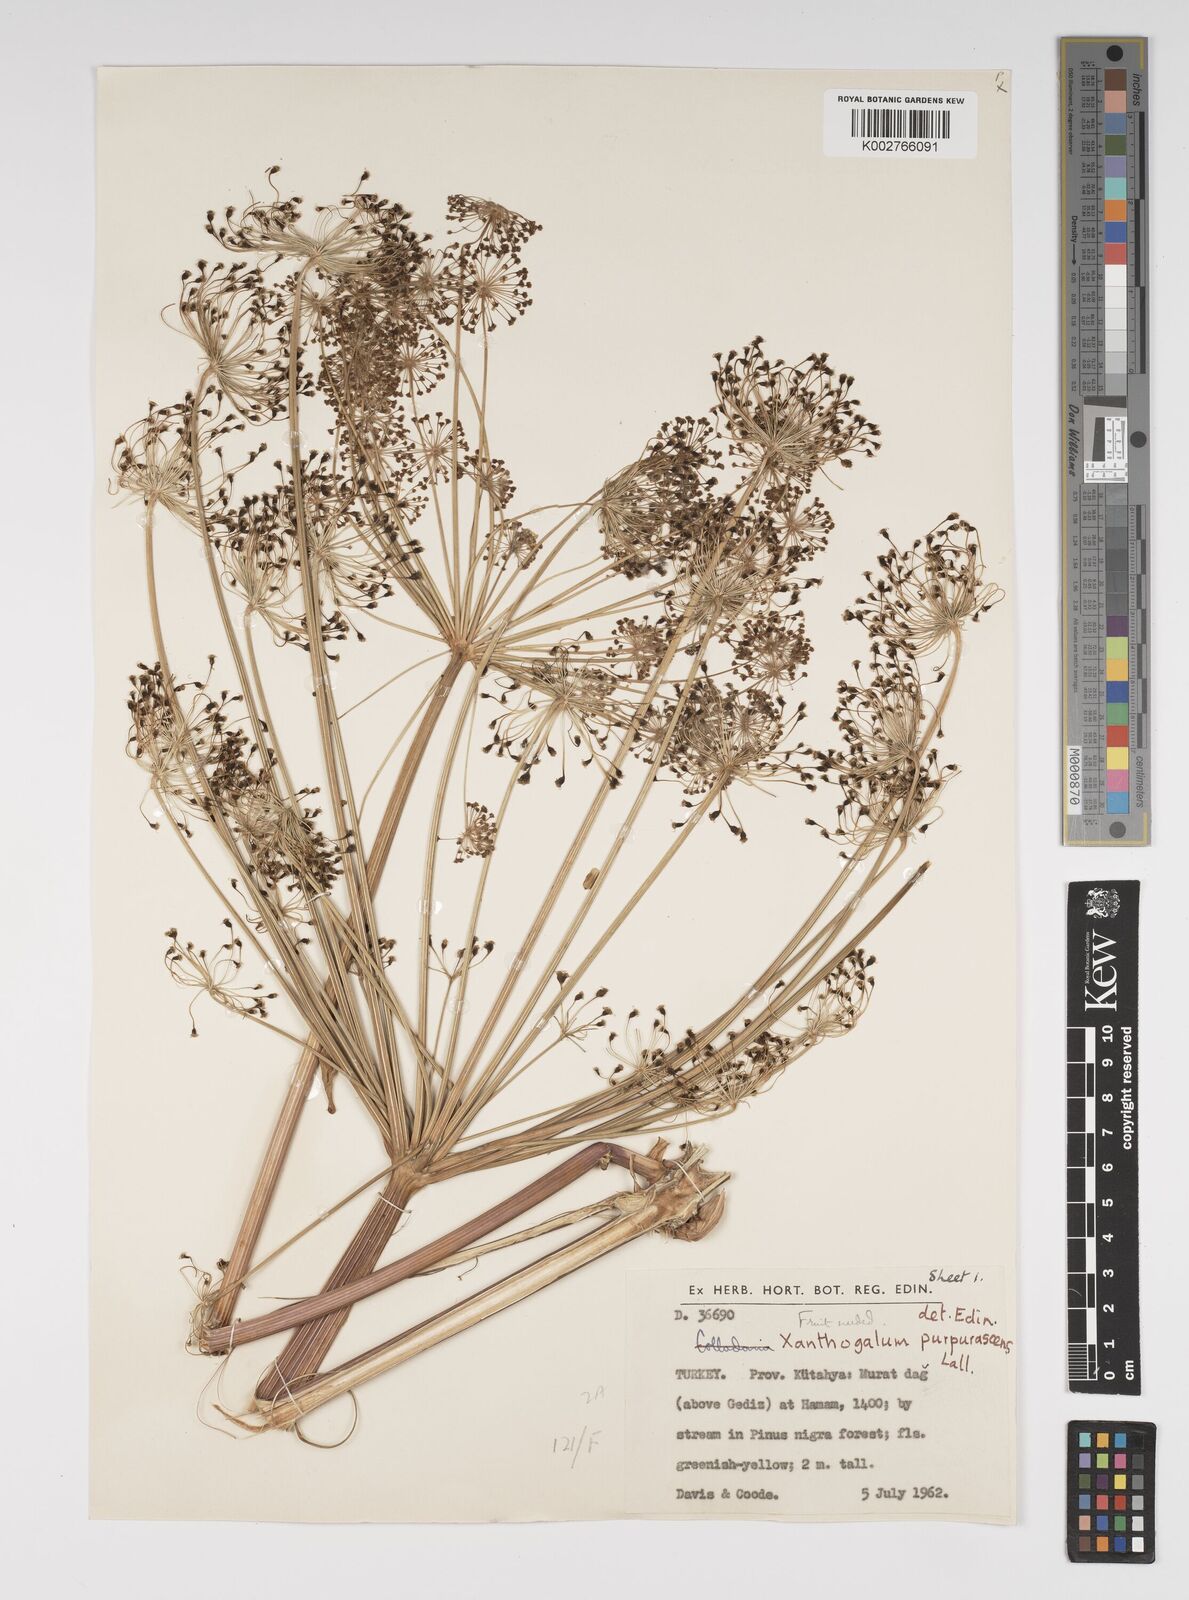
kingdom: Plantae
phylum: Tracheophyta
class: Magnoliopsida
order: Apiales
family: Apiaceae
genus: Xanthogalum
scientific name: Xanthogalum purpurascens
